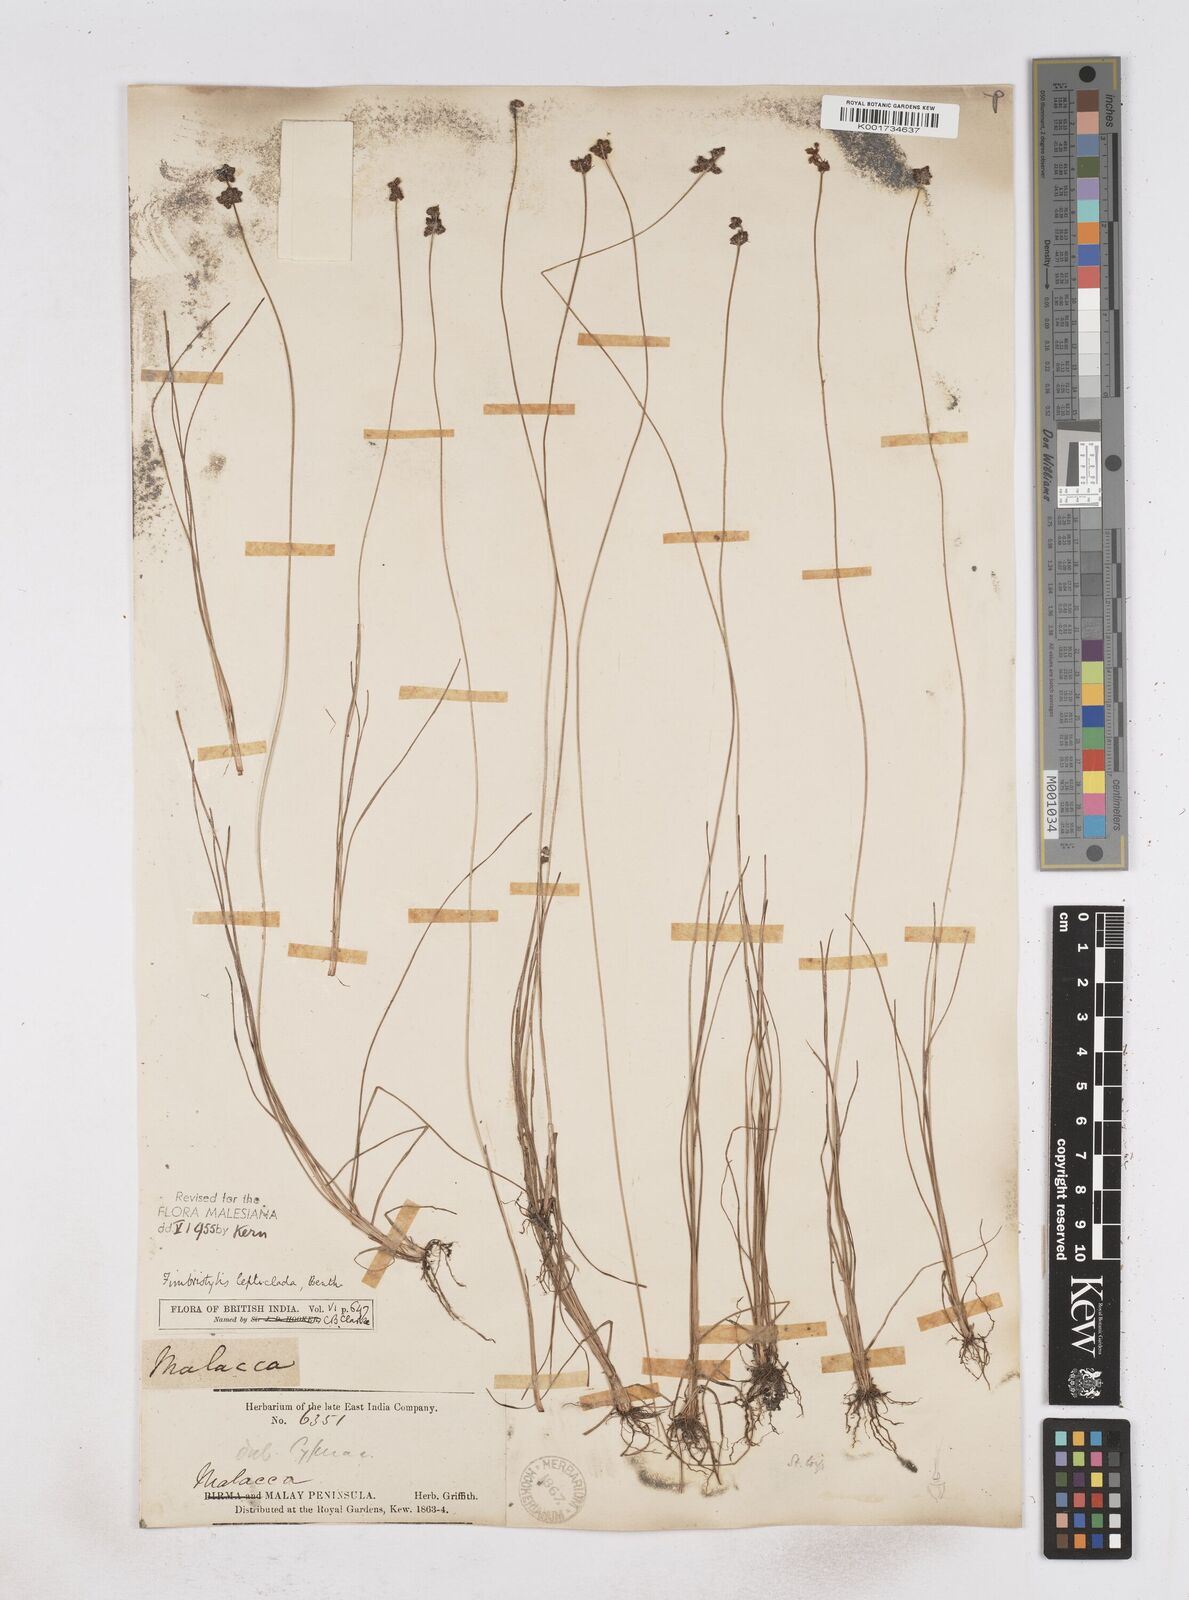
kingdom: Plantae
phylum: Tracheophyta
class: Liliopsida
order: Poales
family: Cyperaceae
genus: Fimbristylis
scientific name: Fimbristylis leptoclada
